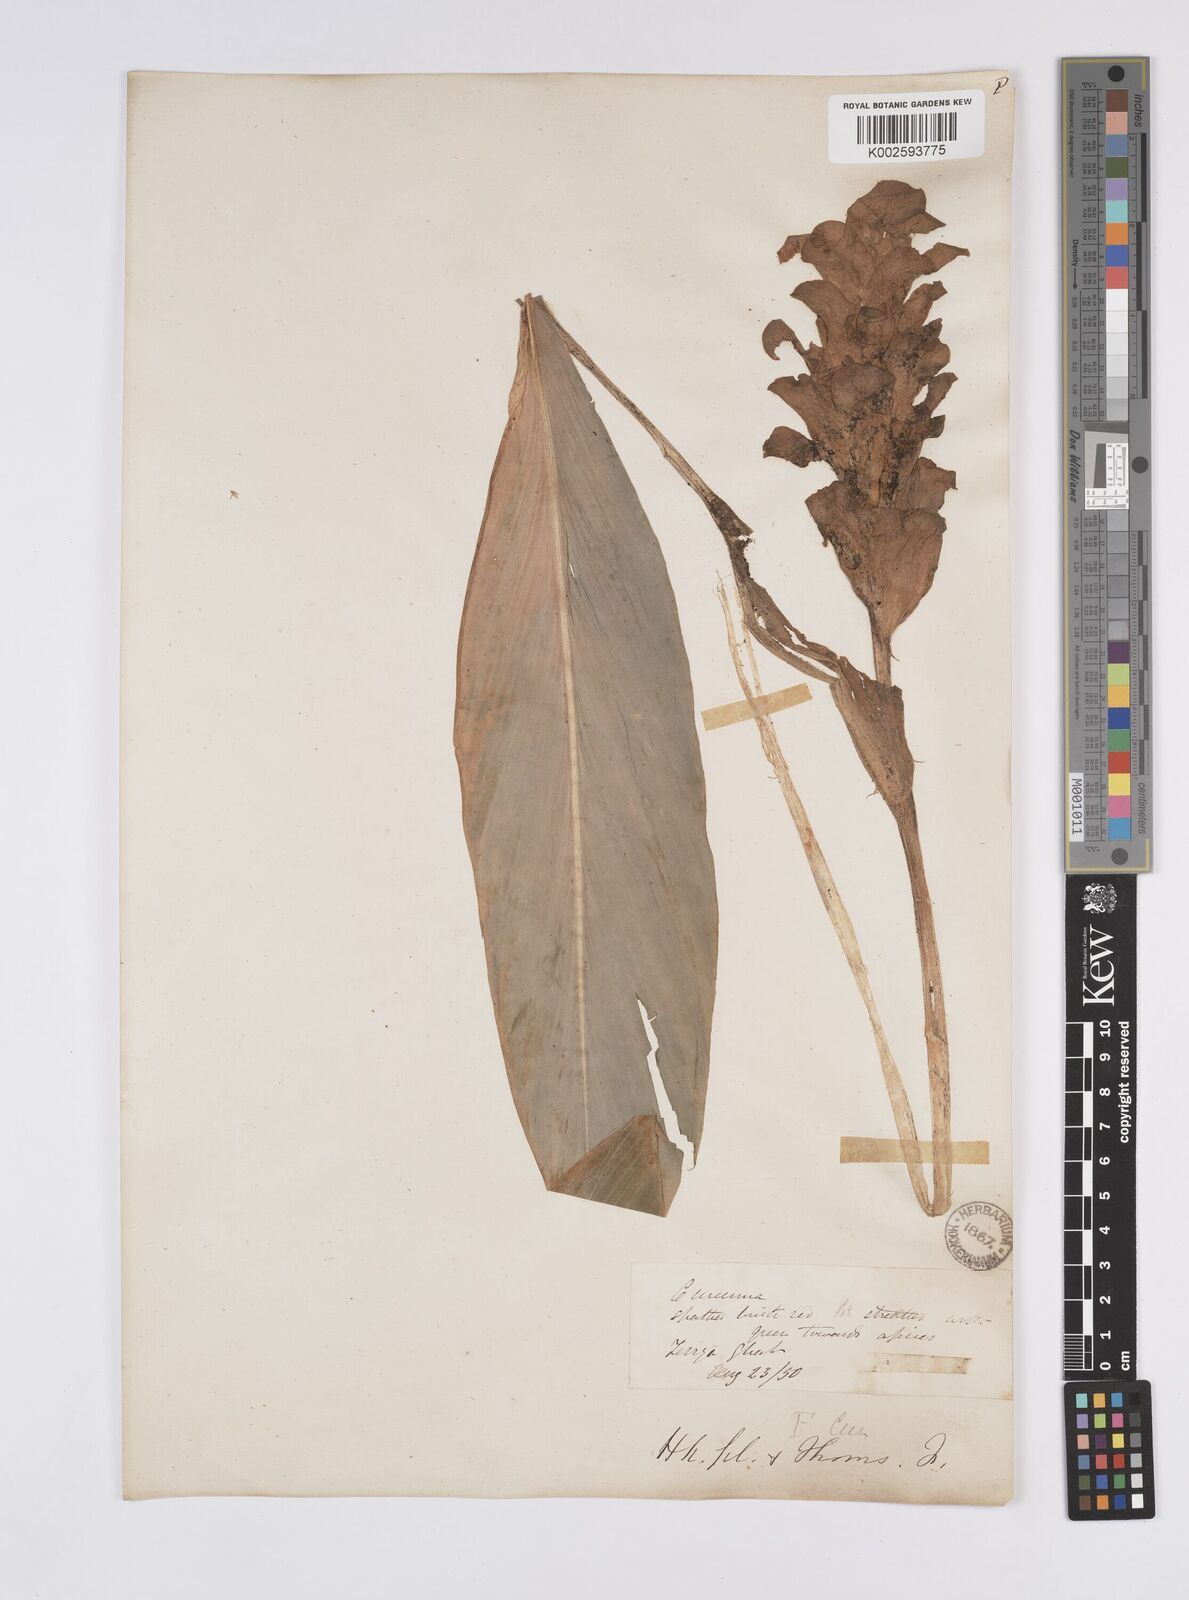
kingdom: Plantae
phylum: Tracheophyta
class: Liliopsida
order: Zingiberales
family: Zingiberaceae
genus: Curcuma
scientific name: Curcuma
